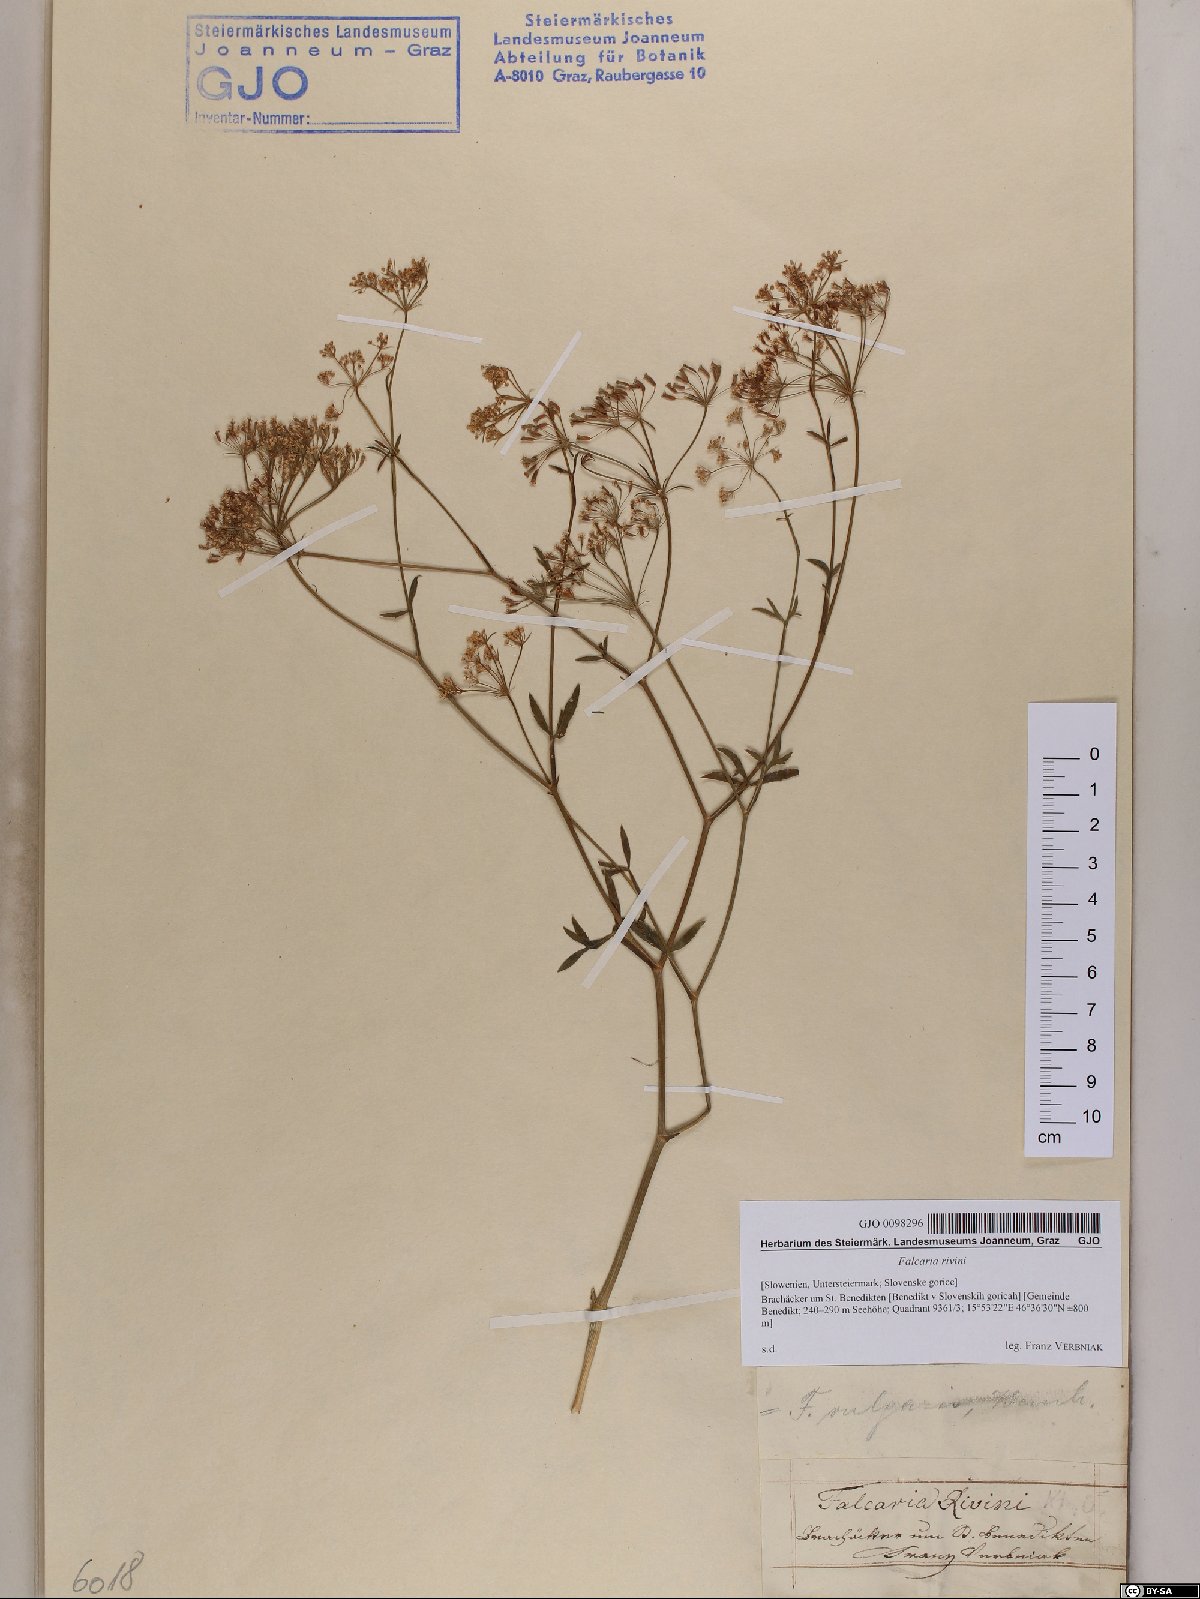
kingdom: Plantae
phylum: Tracheophyta
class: Magnoliopsida
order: Apiales
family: Apiaceae
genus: Falcaria
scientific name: Falcaria vulgaris
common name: Longleaf
